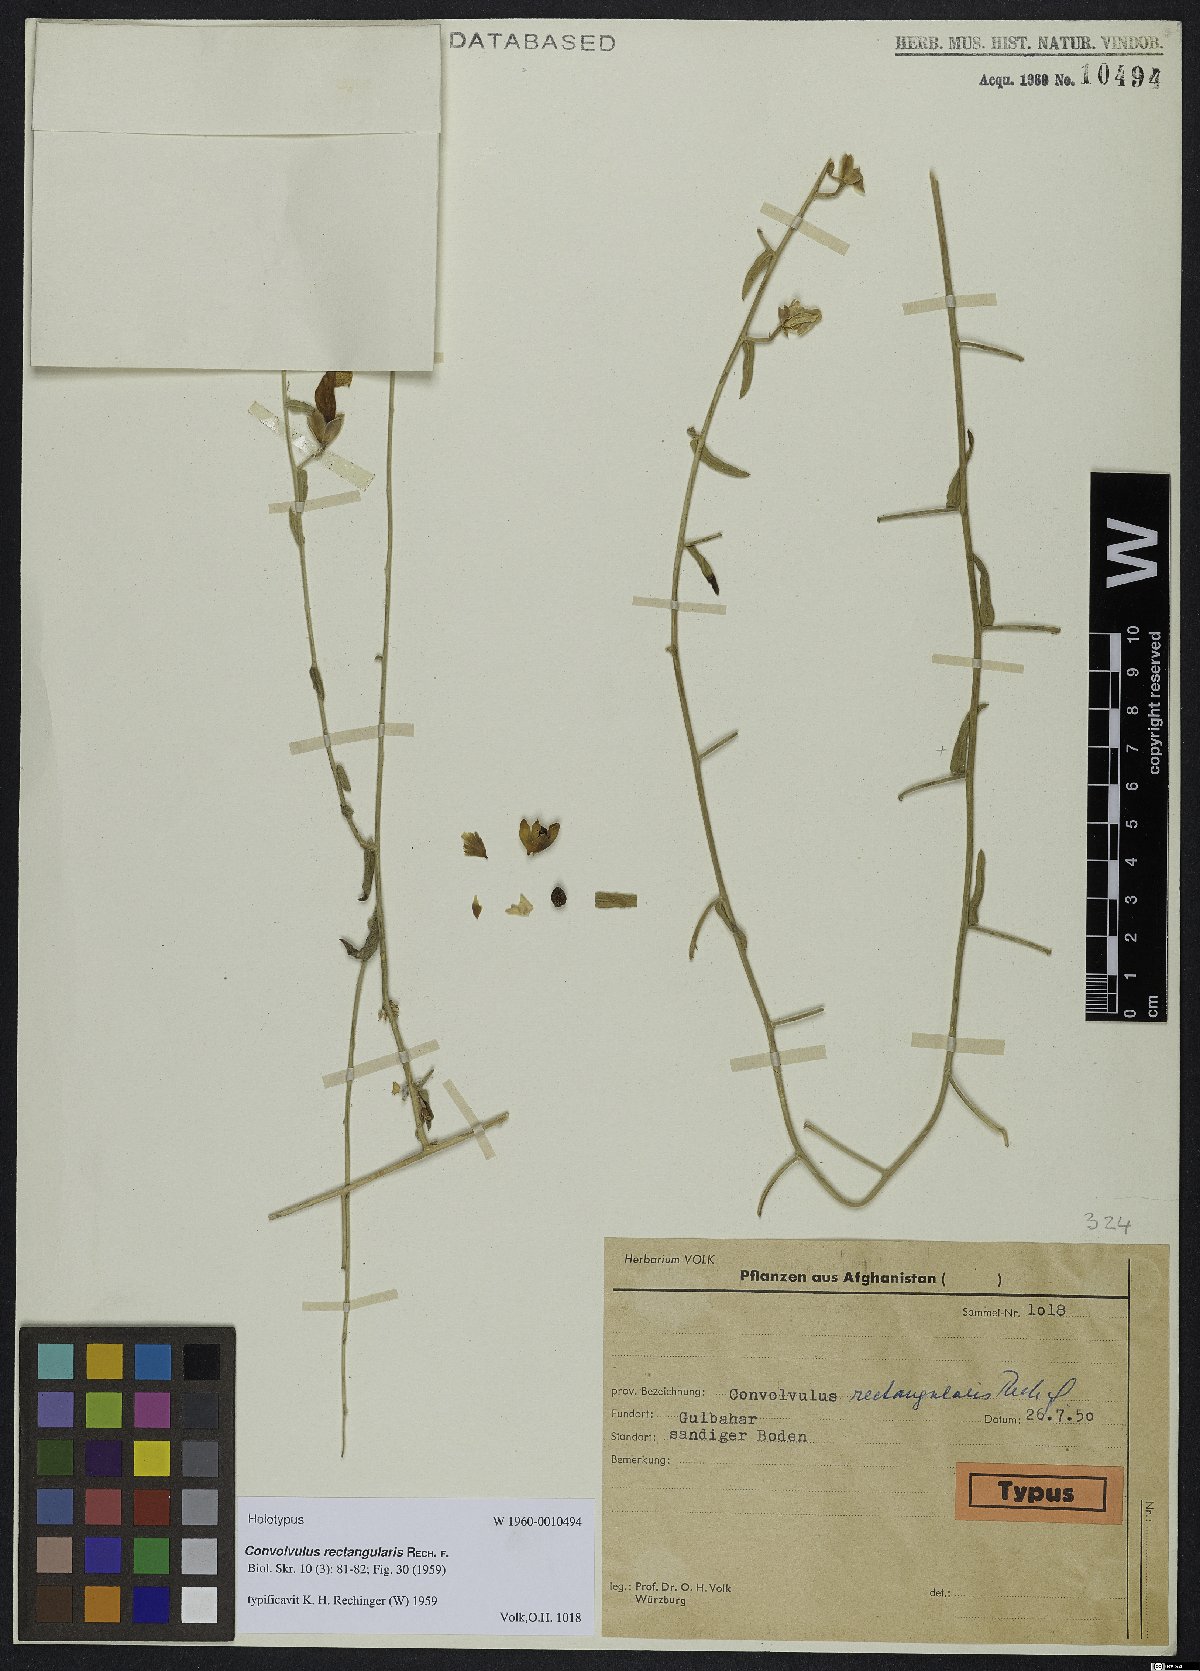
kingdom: Plantae
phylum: Tracheophyta
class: Magnoliopsida
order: Solanales
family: Convolvulaceae
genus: Convolvulus
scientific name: Convolvulus rectangularis
